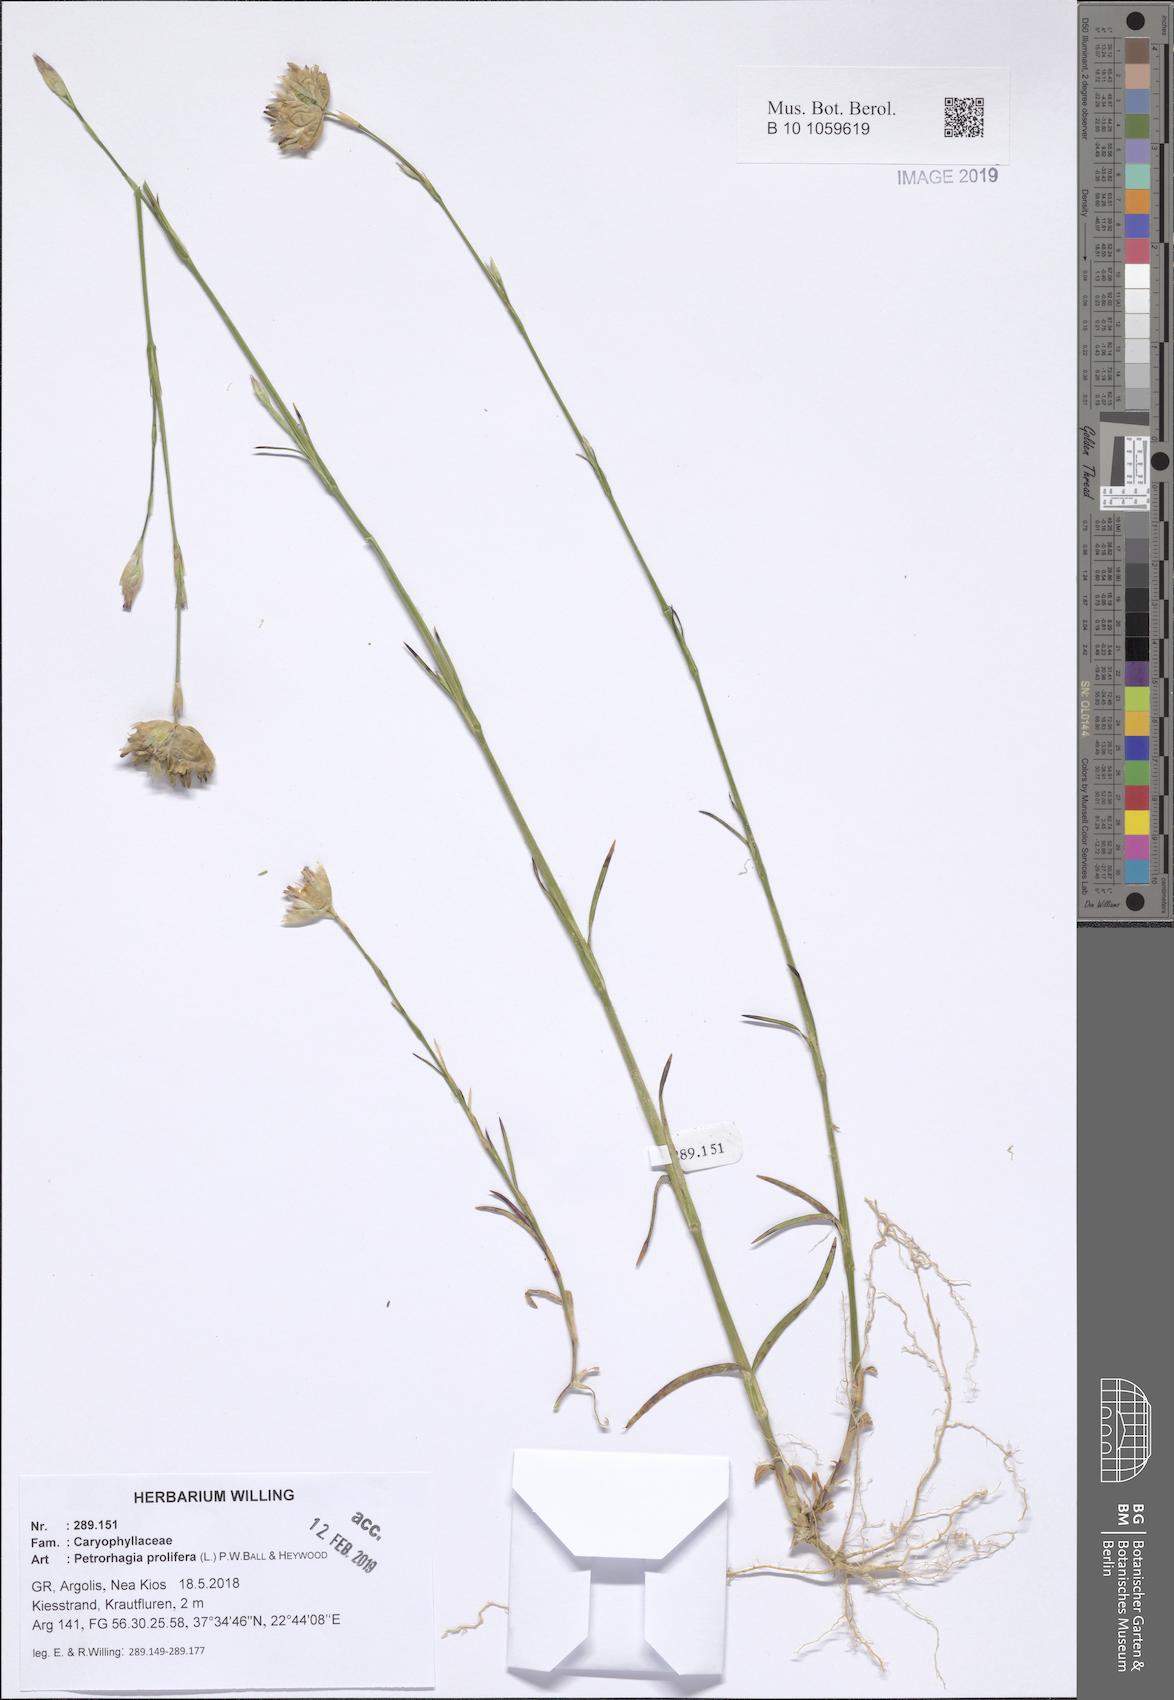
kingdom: Plantae
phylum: Tracheophyta
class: Magnoliopsida
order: Caryophyllales
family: Caryophyllaceae
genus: Petrorhagia
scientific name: Petrorhagia prolifera
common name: Proliferous pink
